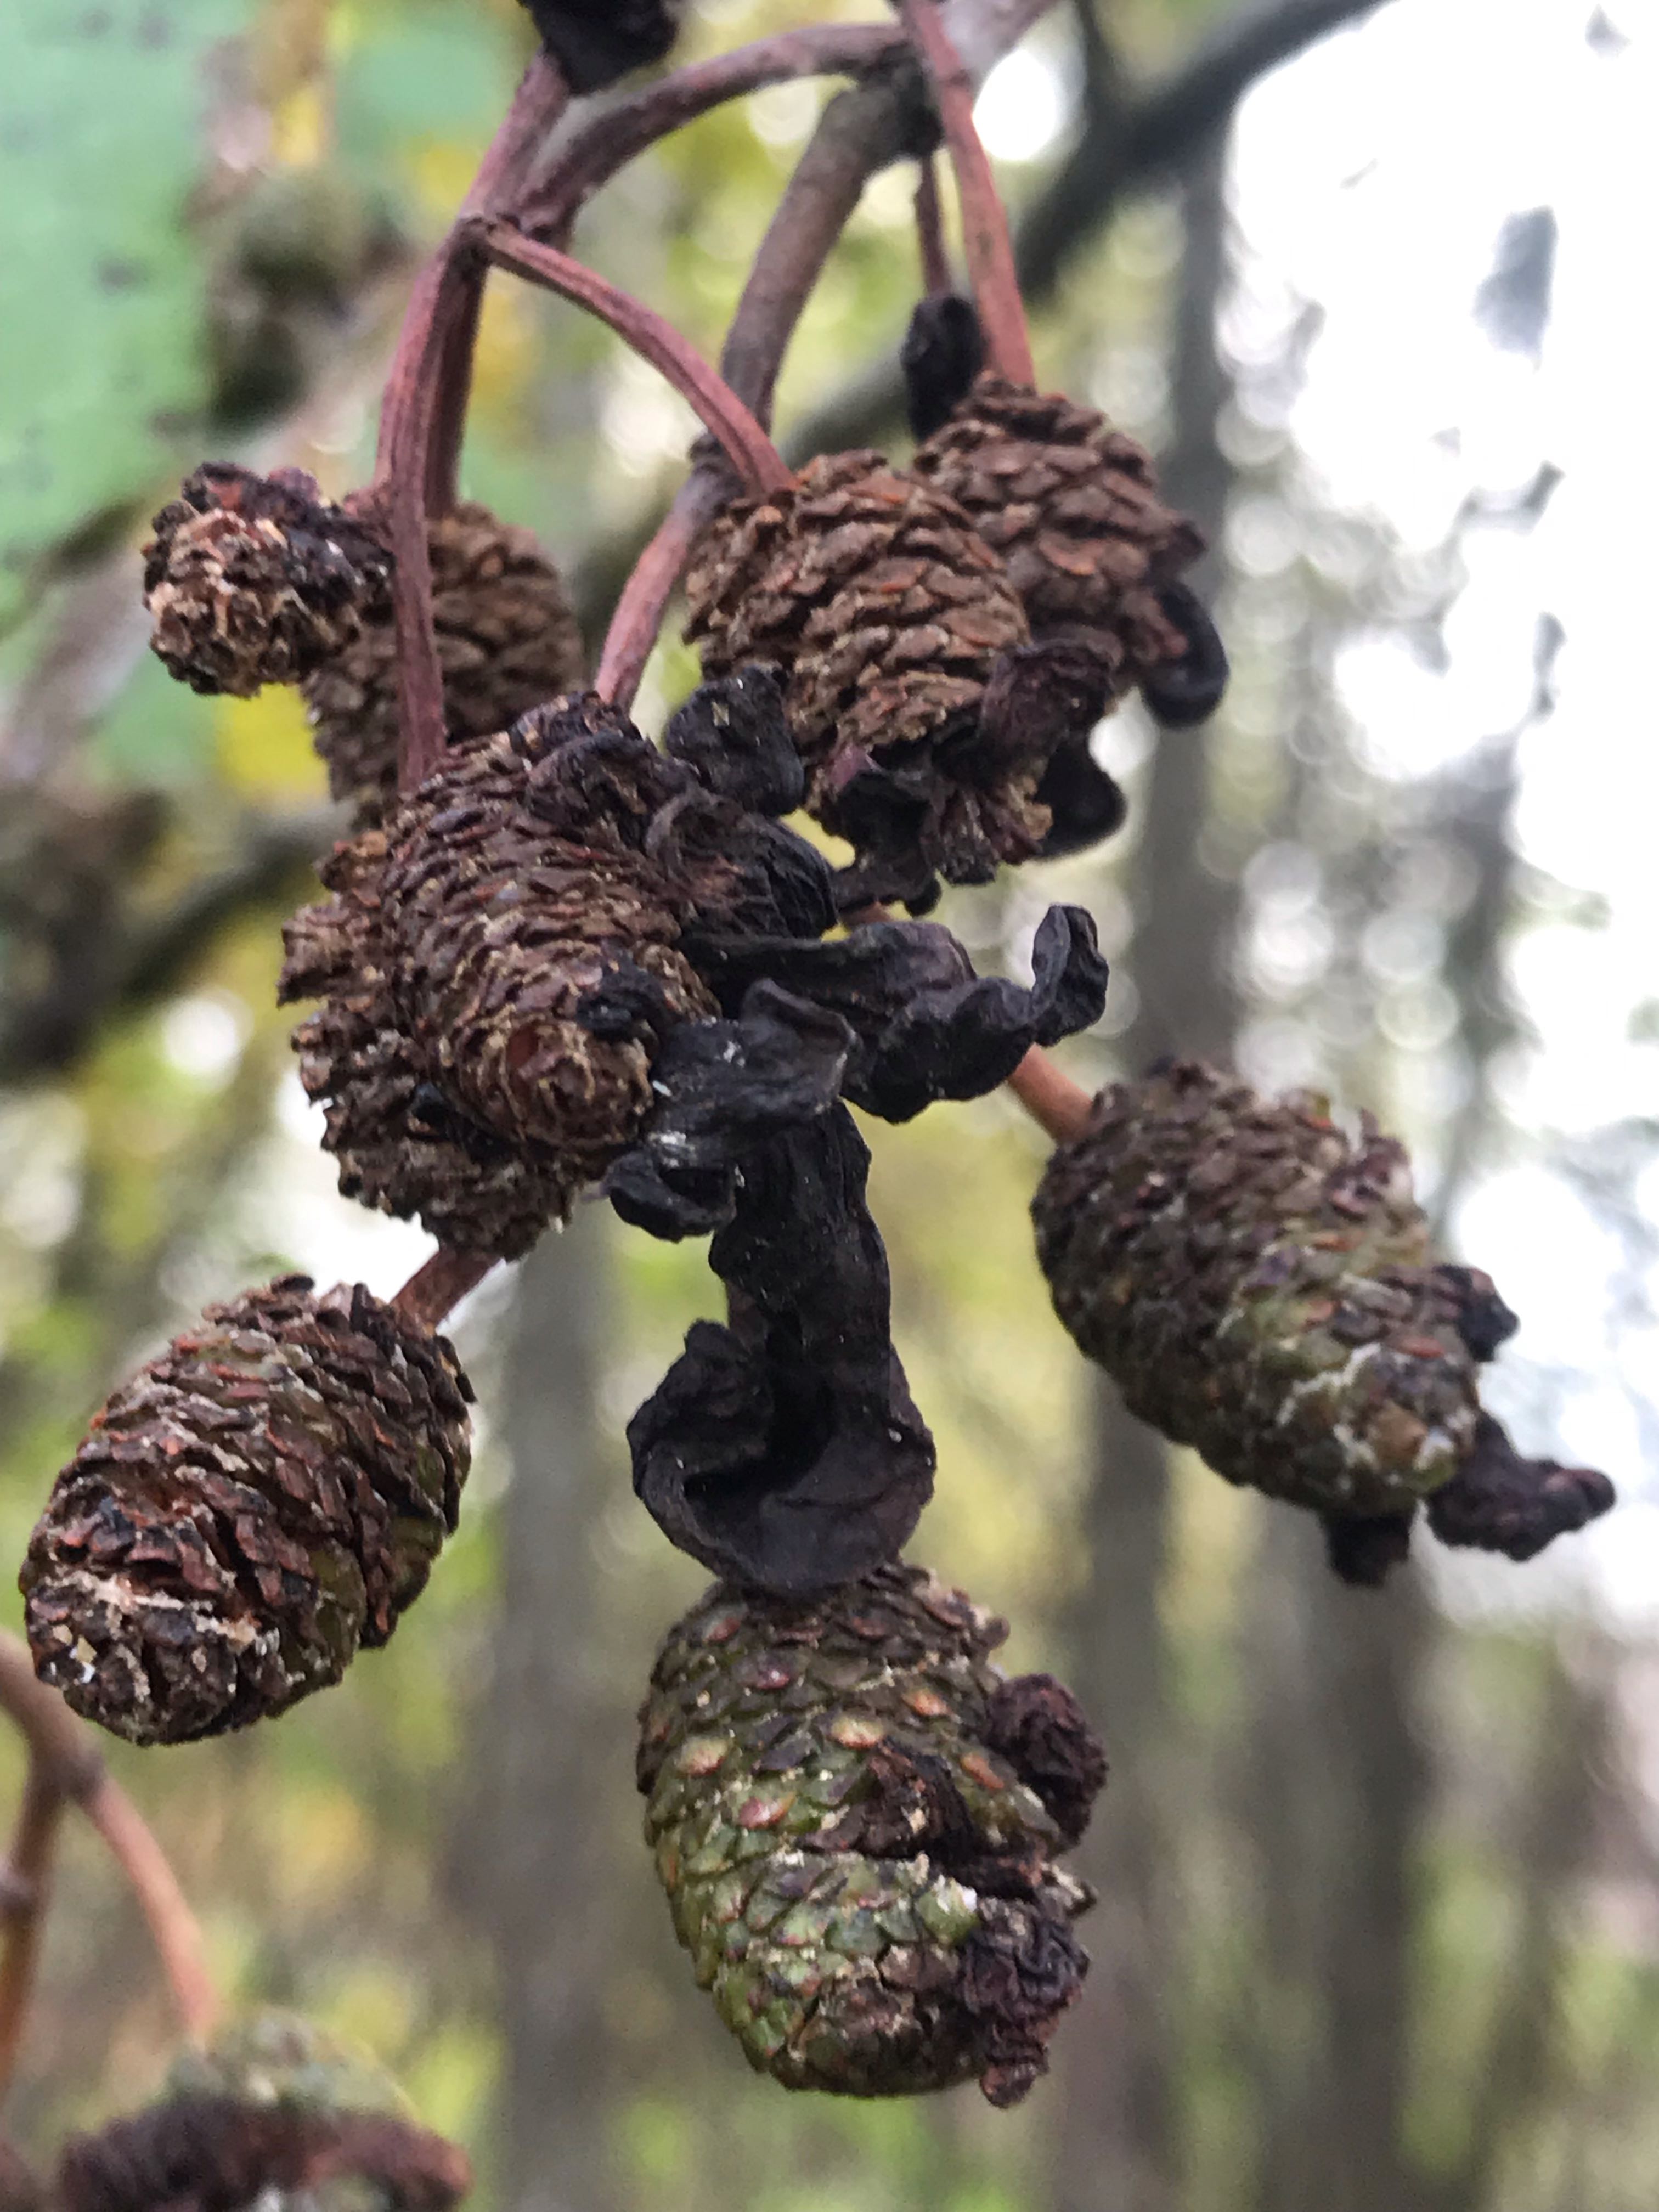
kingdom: Fungi
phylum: Ascomycota
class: Taphrinomycetes
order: Taphrinales
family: Taphrinaceae
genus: Taphrina
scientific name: Taphrina alni
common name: Alder tongue
